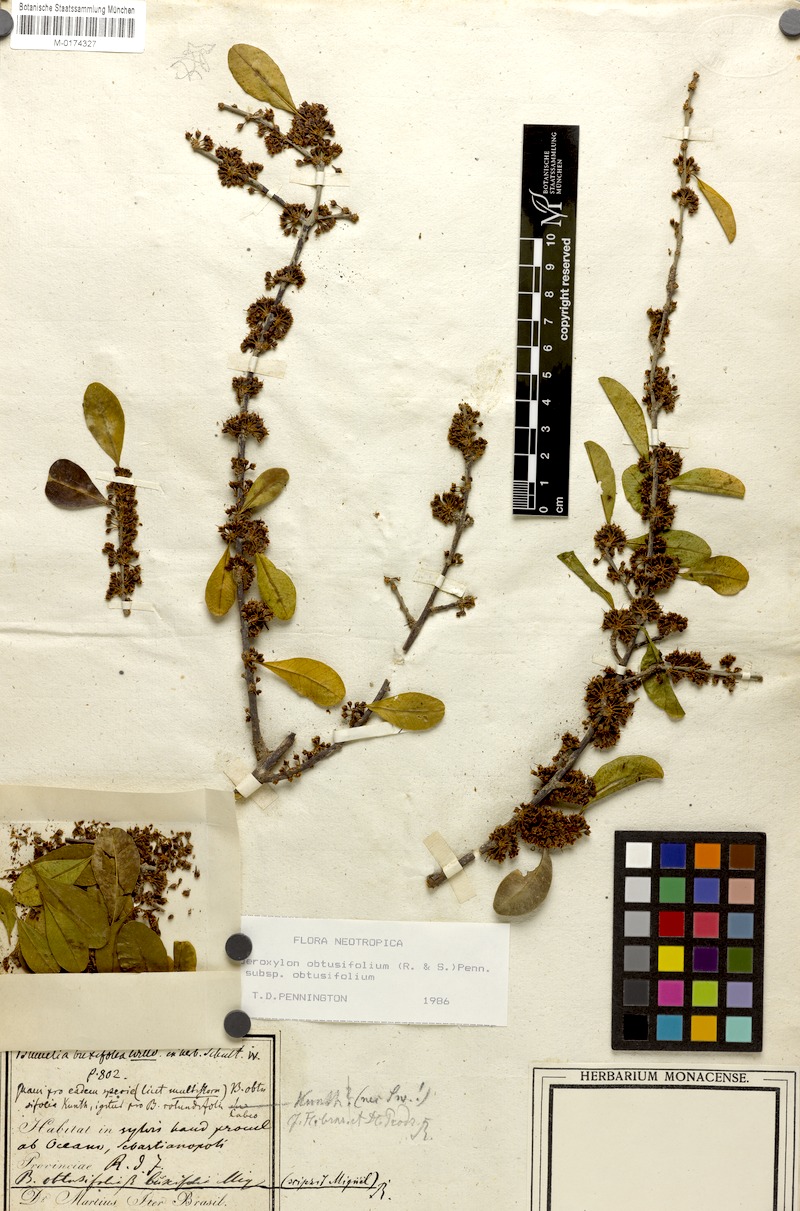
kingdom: Plantae
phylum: Tracheophyta
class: Magnoliopsida
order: Ericales
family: Sapotaceae
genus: Sideroxylon
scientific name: Sideroxylon obtusifolium
